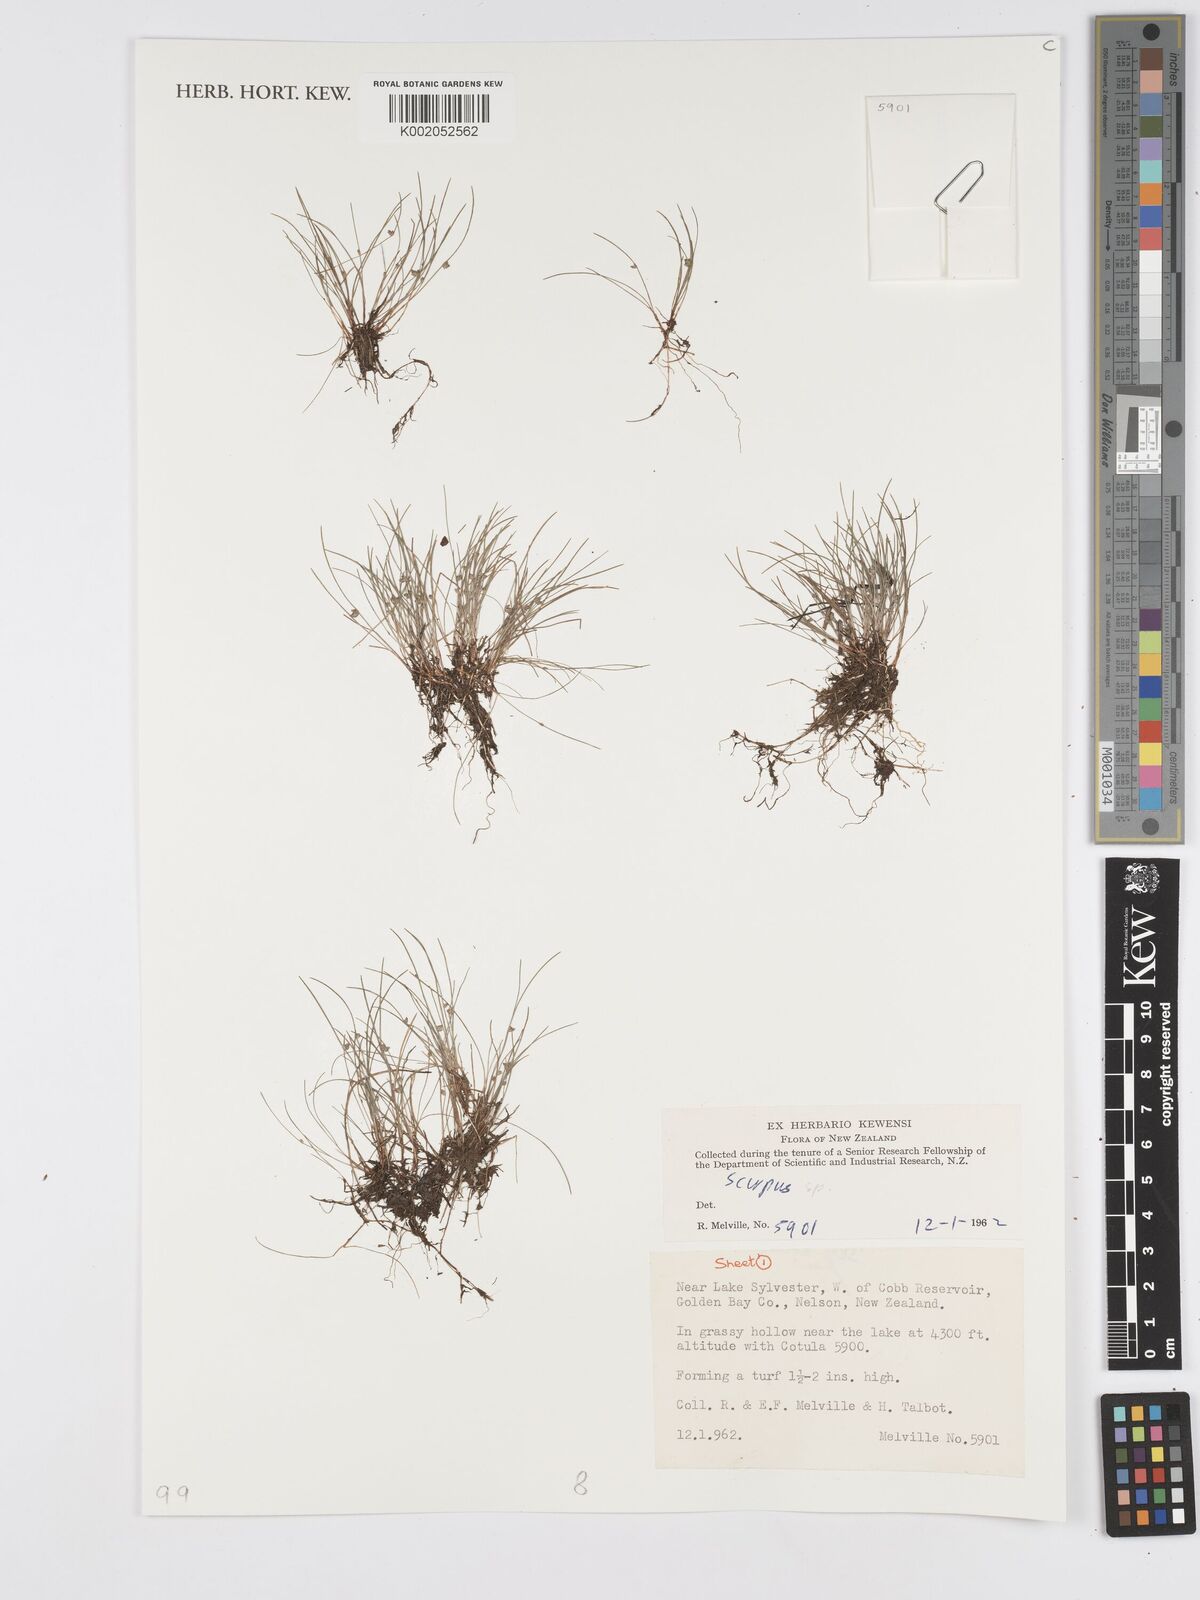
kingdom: Plantae
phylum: Tracheophyta
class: Liliopsida
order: Poales
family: Cyperaceae
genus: Scirpus
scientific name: Scirpus
